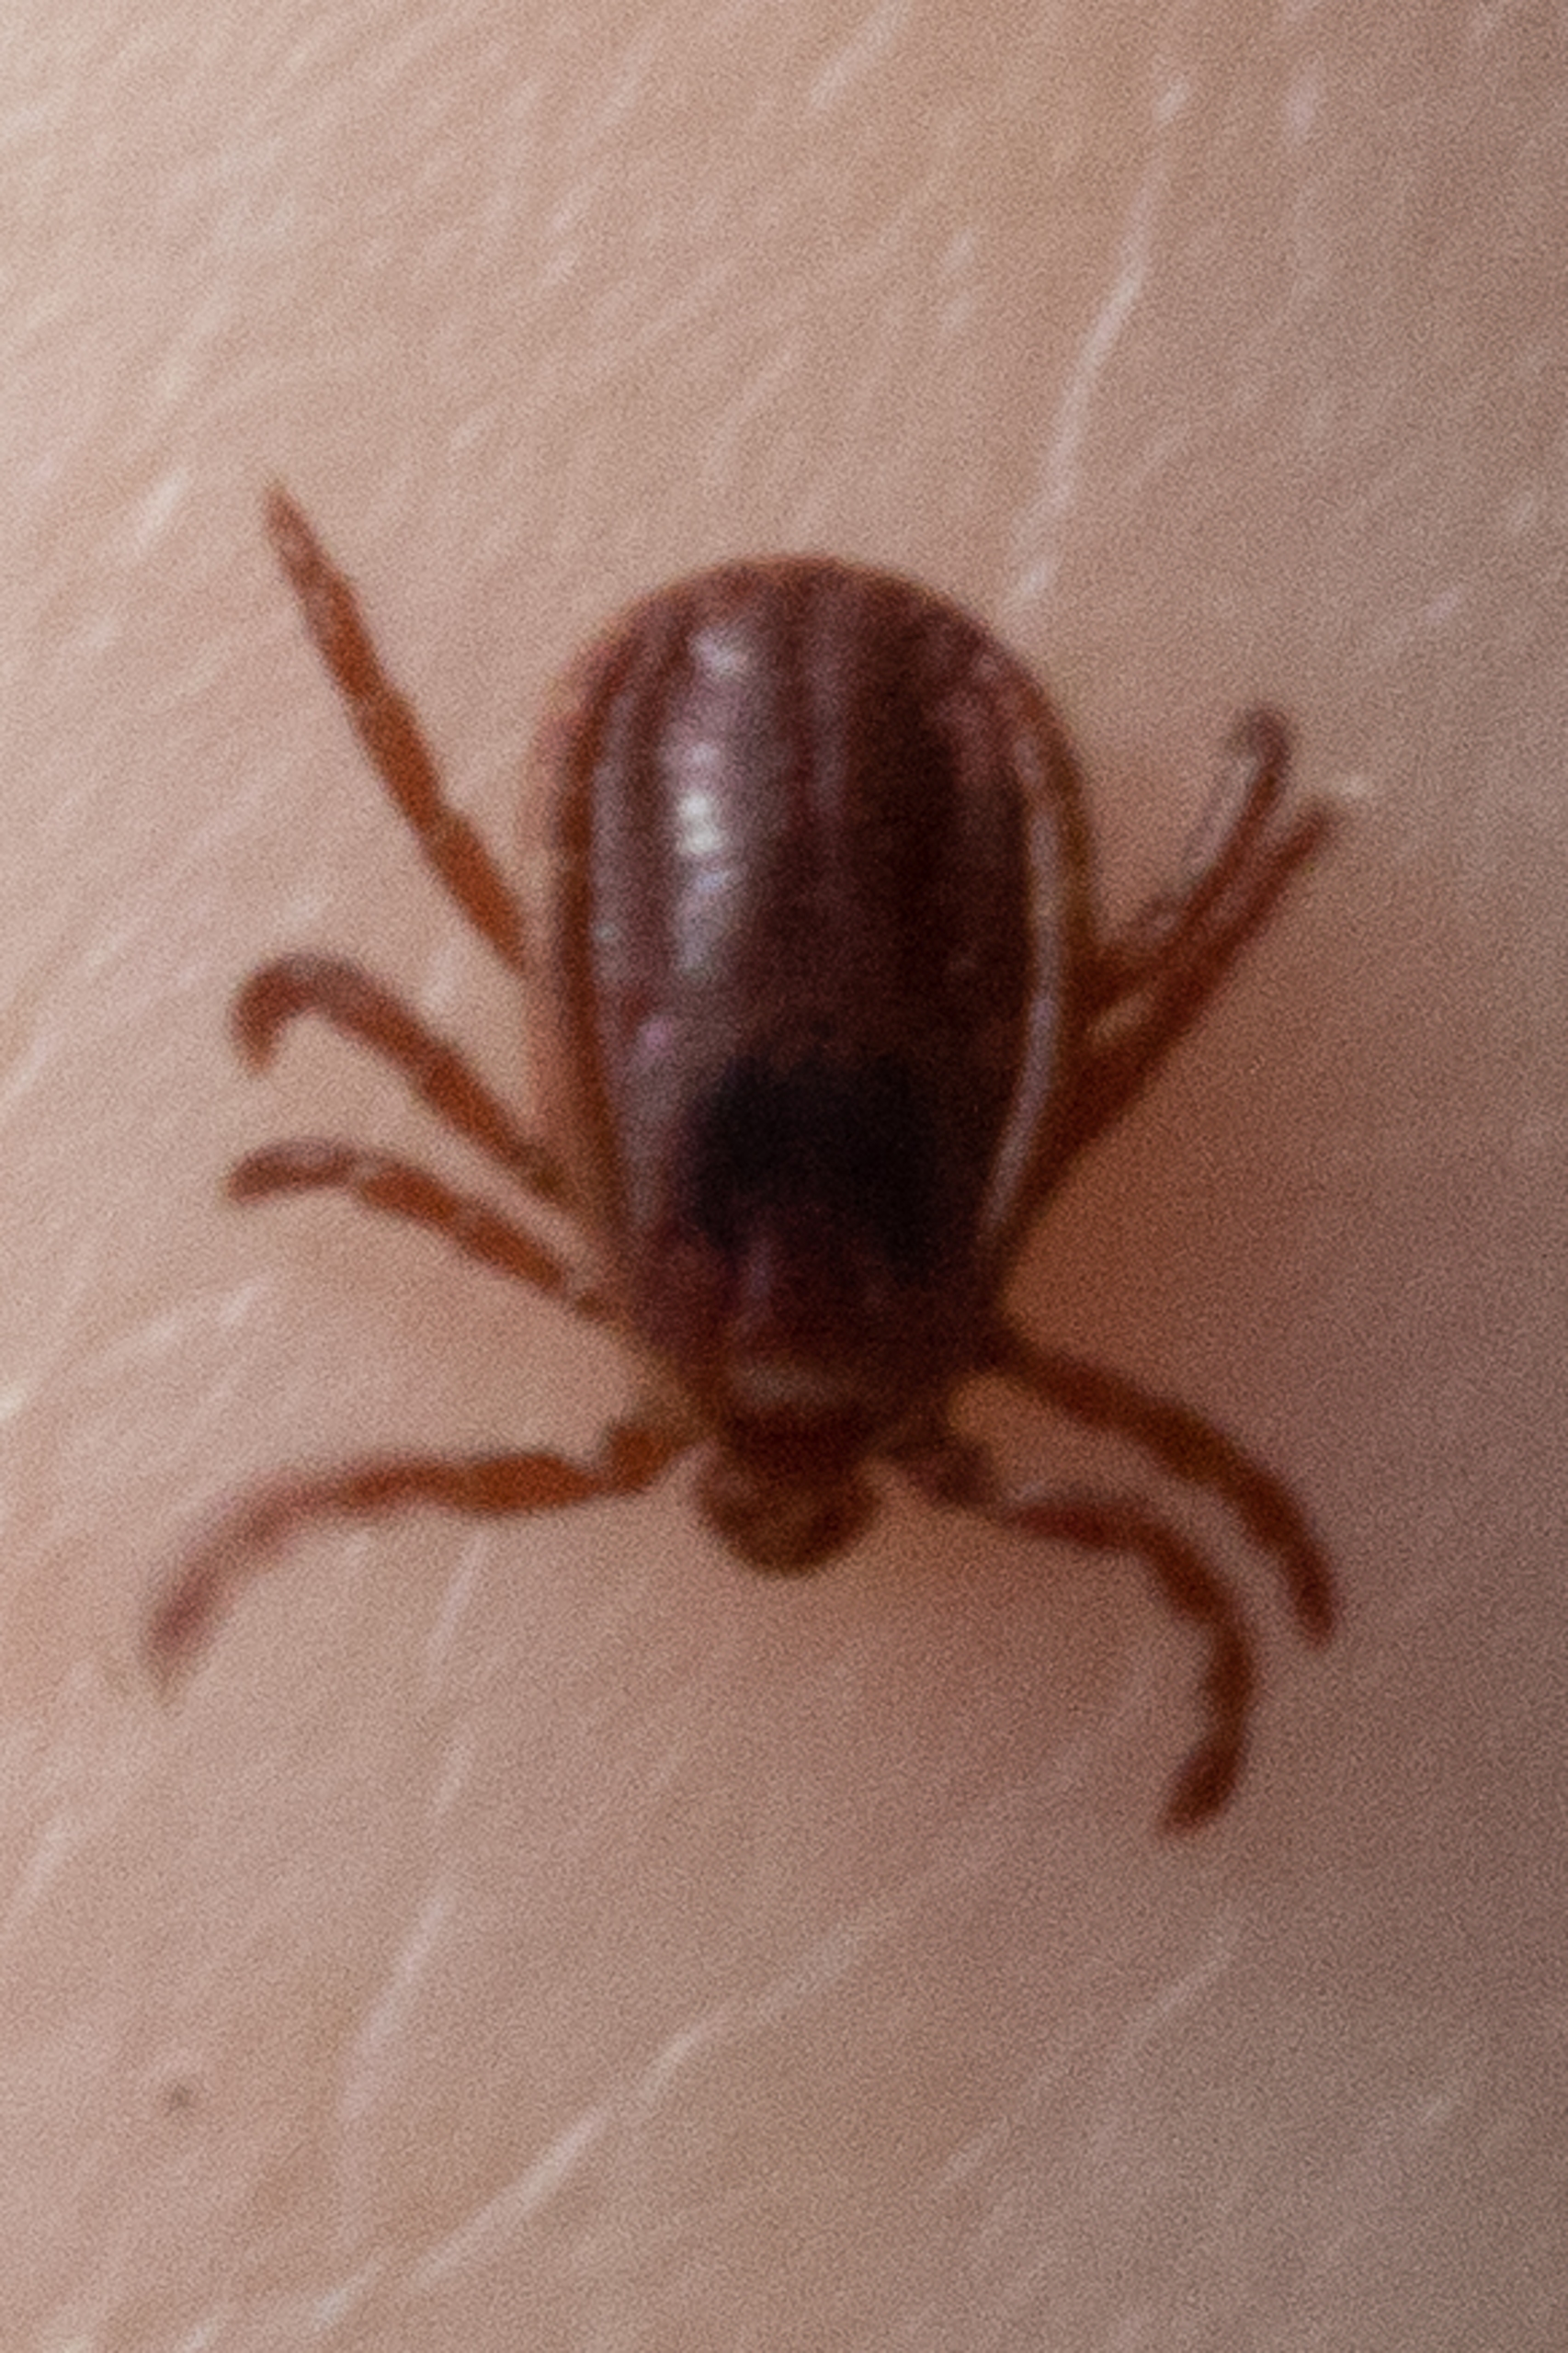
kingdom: Animalia
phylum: Arthropoda
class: Arachnida
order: Ixodida
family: Ixodidae
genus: Ixodes
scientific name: Ixodes ricinus
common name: Skovflåt
